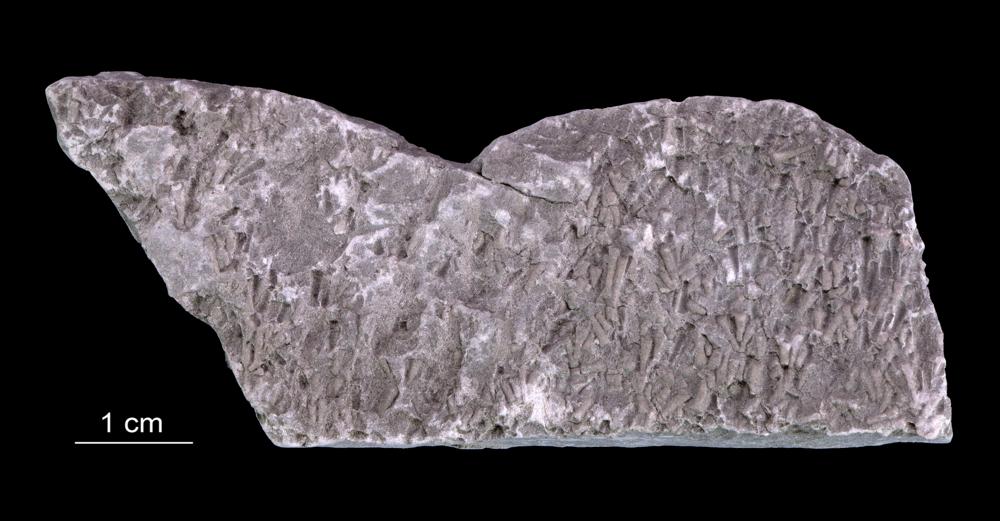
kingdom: Animalia
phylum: Annelida
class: Polychaeta
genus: Volborthella
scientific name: Volborthella tenuis
